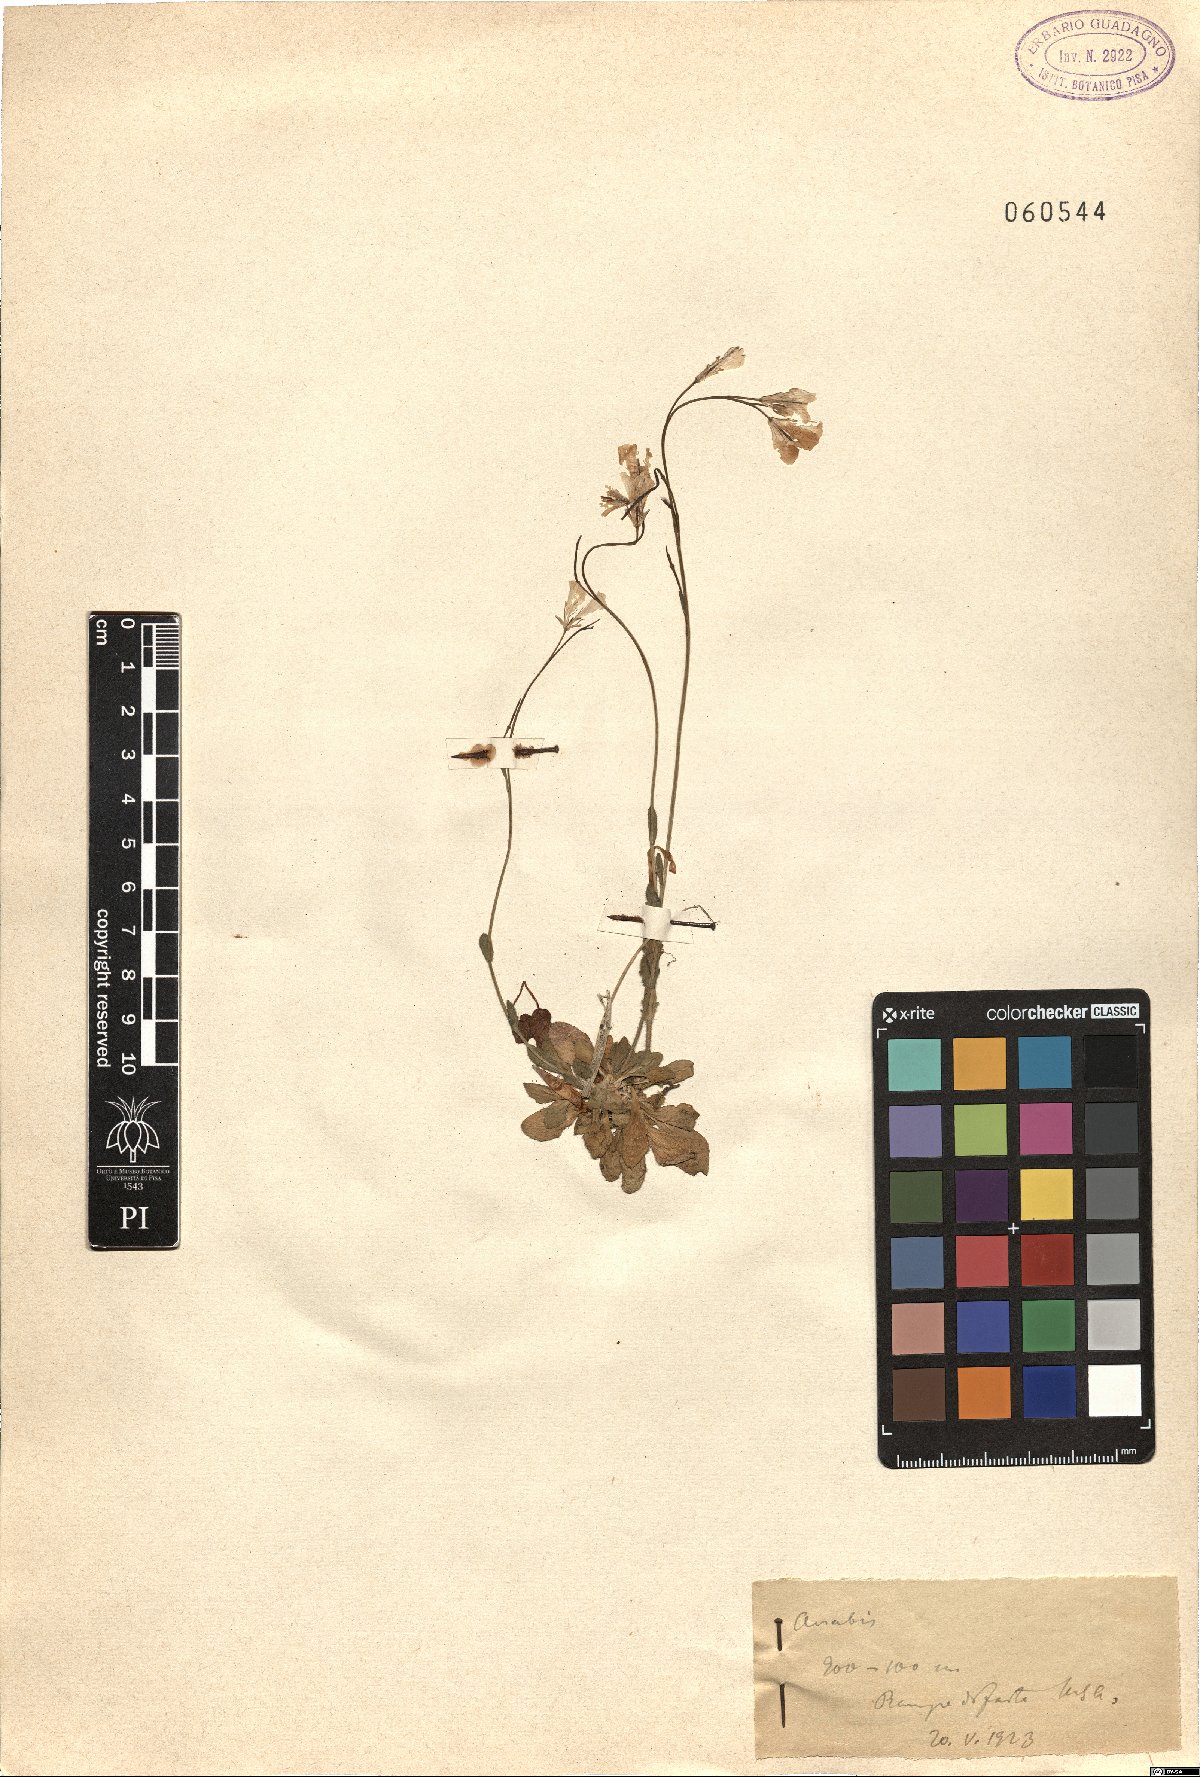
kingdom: Plantae
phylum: Tracheophyta
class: Magnoliopsida
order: Brassicales
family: Brassicaceae
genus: Arabis
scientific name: Arabis
